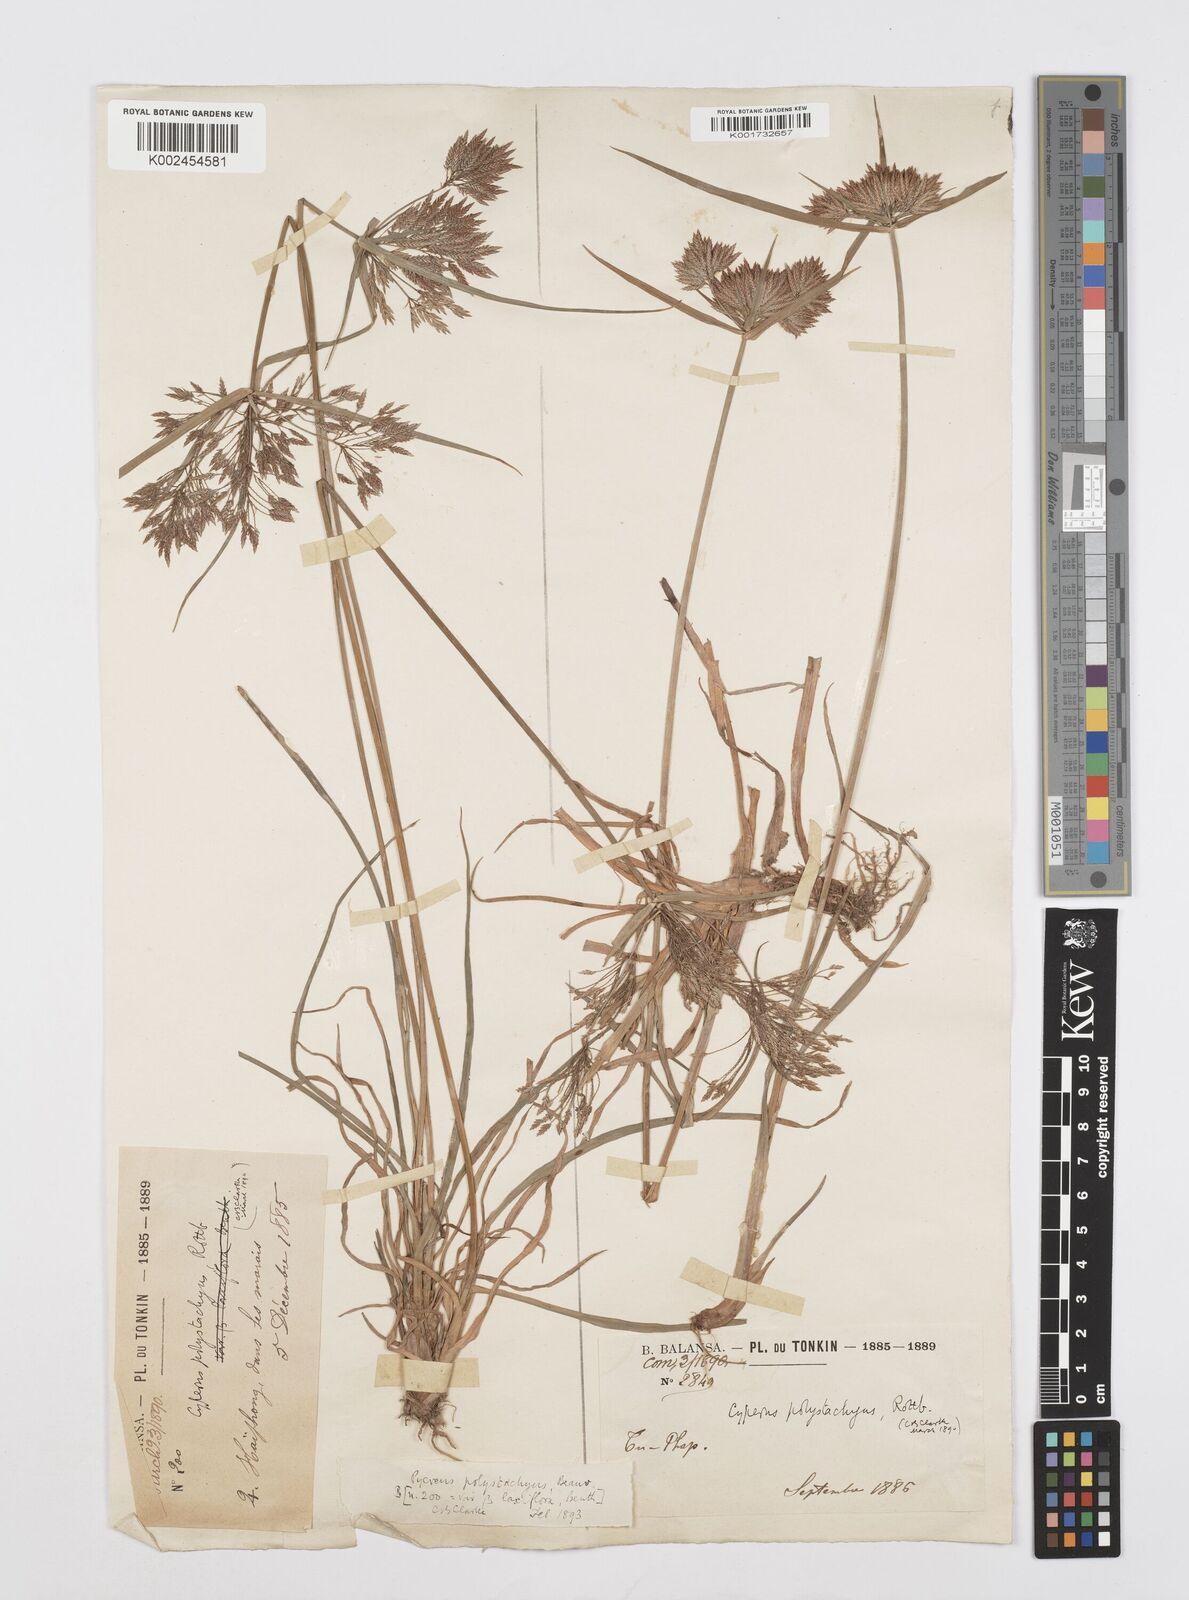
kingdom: Plantae
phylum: Tracheophyta
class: Liliopsida
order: Poales
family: Cyperaceae
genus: Cyperus
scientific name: Cyperus polystachyos
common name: Bunchy flat sedge
